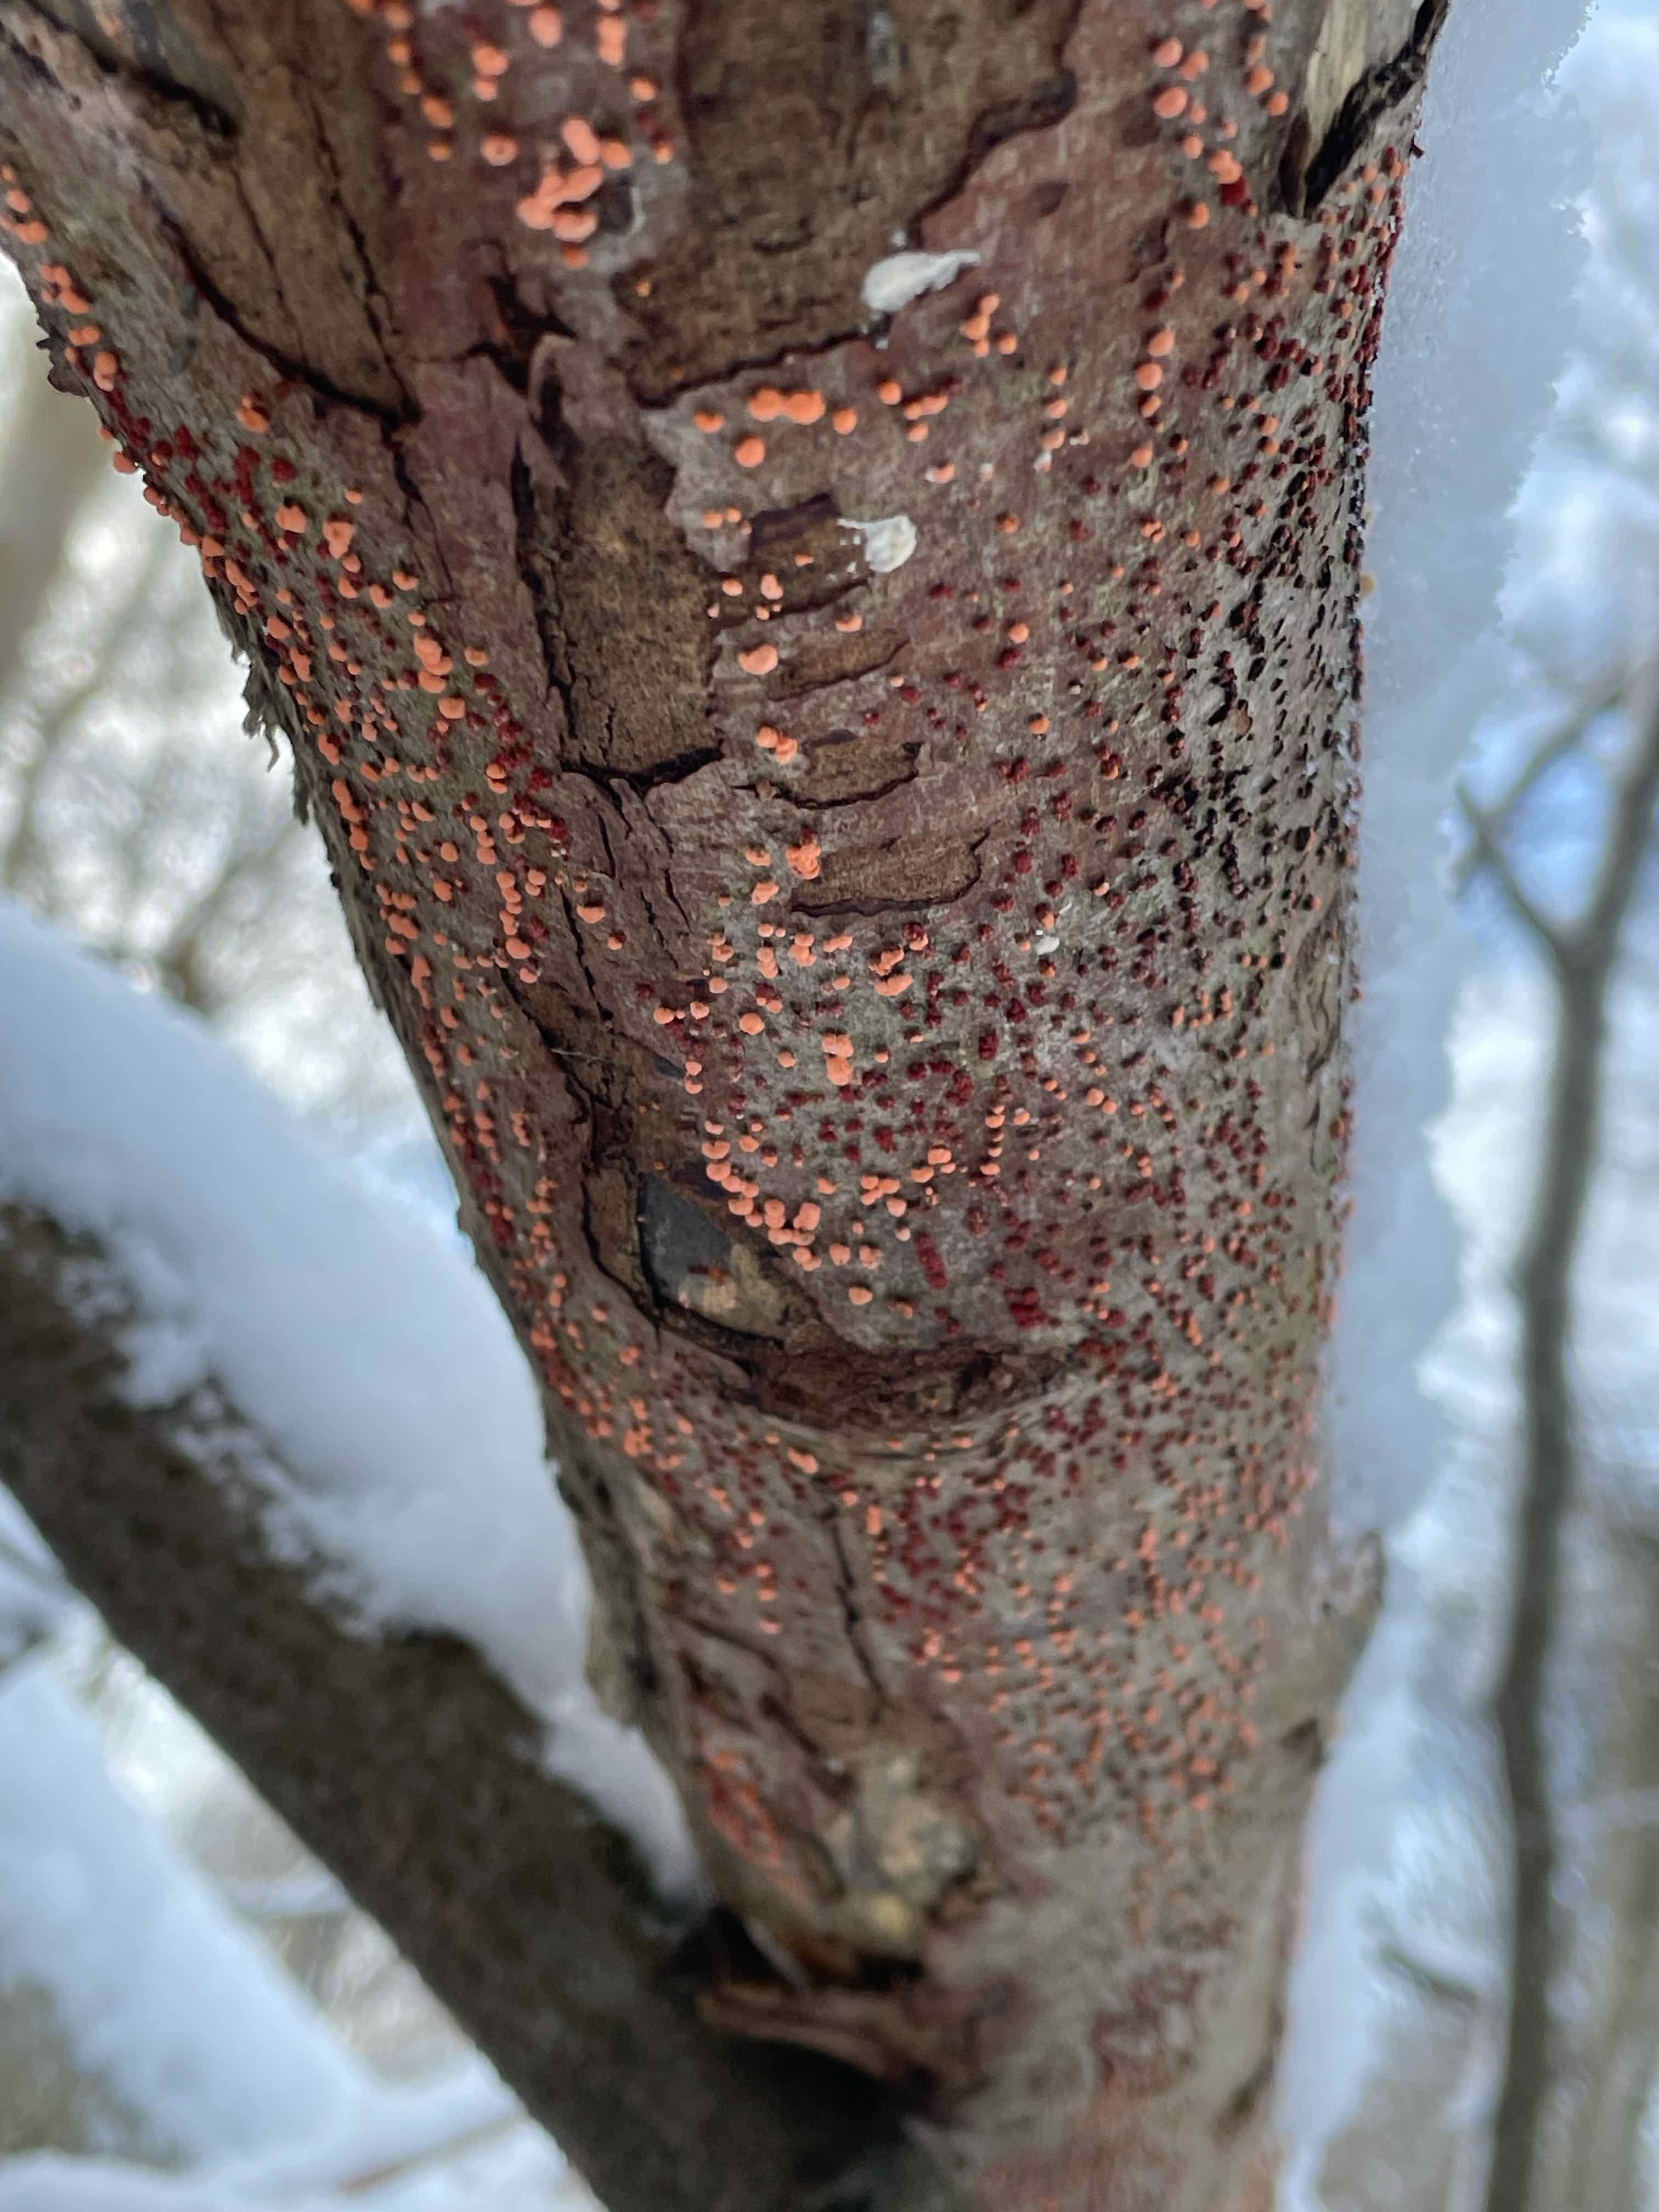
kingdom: Fungi
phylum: Ascomycota
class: Sordariomycetes
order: Hypocreales
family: Nectriaceae
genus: Nectria
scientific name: Nectria cinnabarina
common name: almindelig cinnobersvamp
